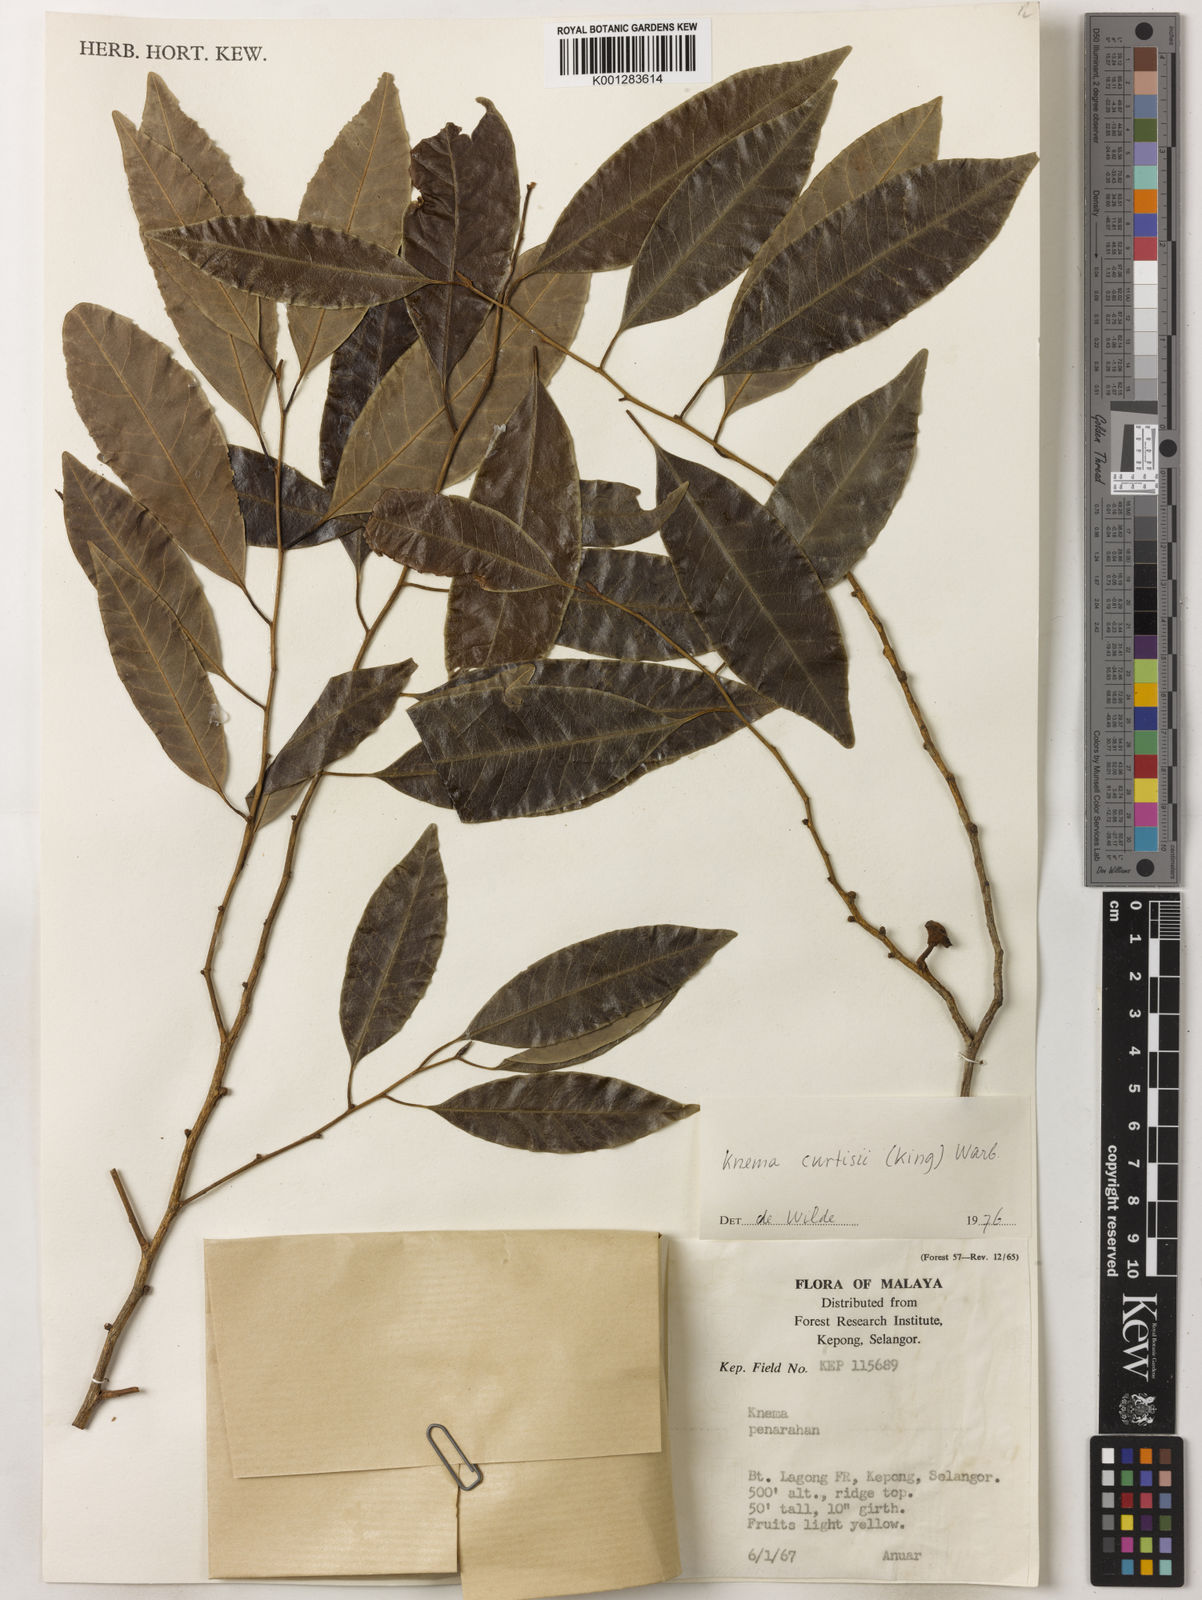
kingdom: Plantae
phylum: Tracheophyta
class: Magnoliopsida
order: Magnoliales
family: Myristicaceae
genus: Knema
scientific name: Knema curtisii
